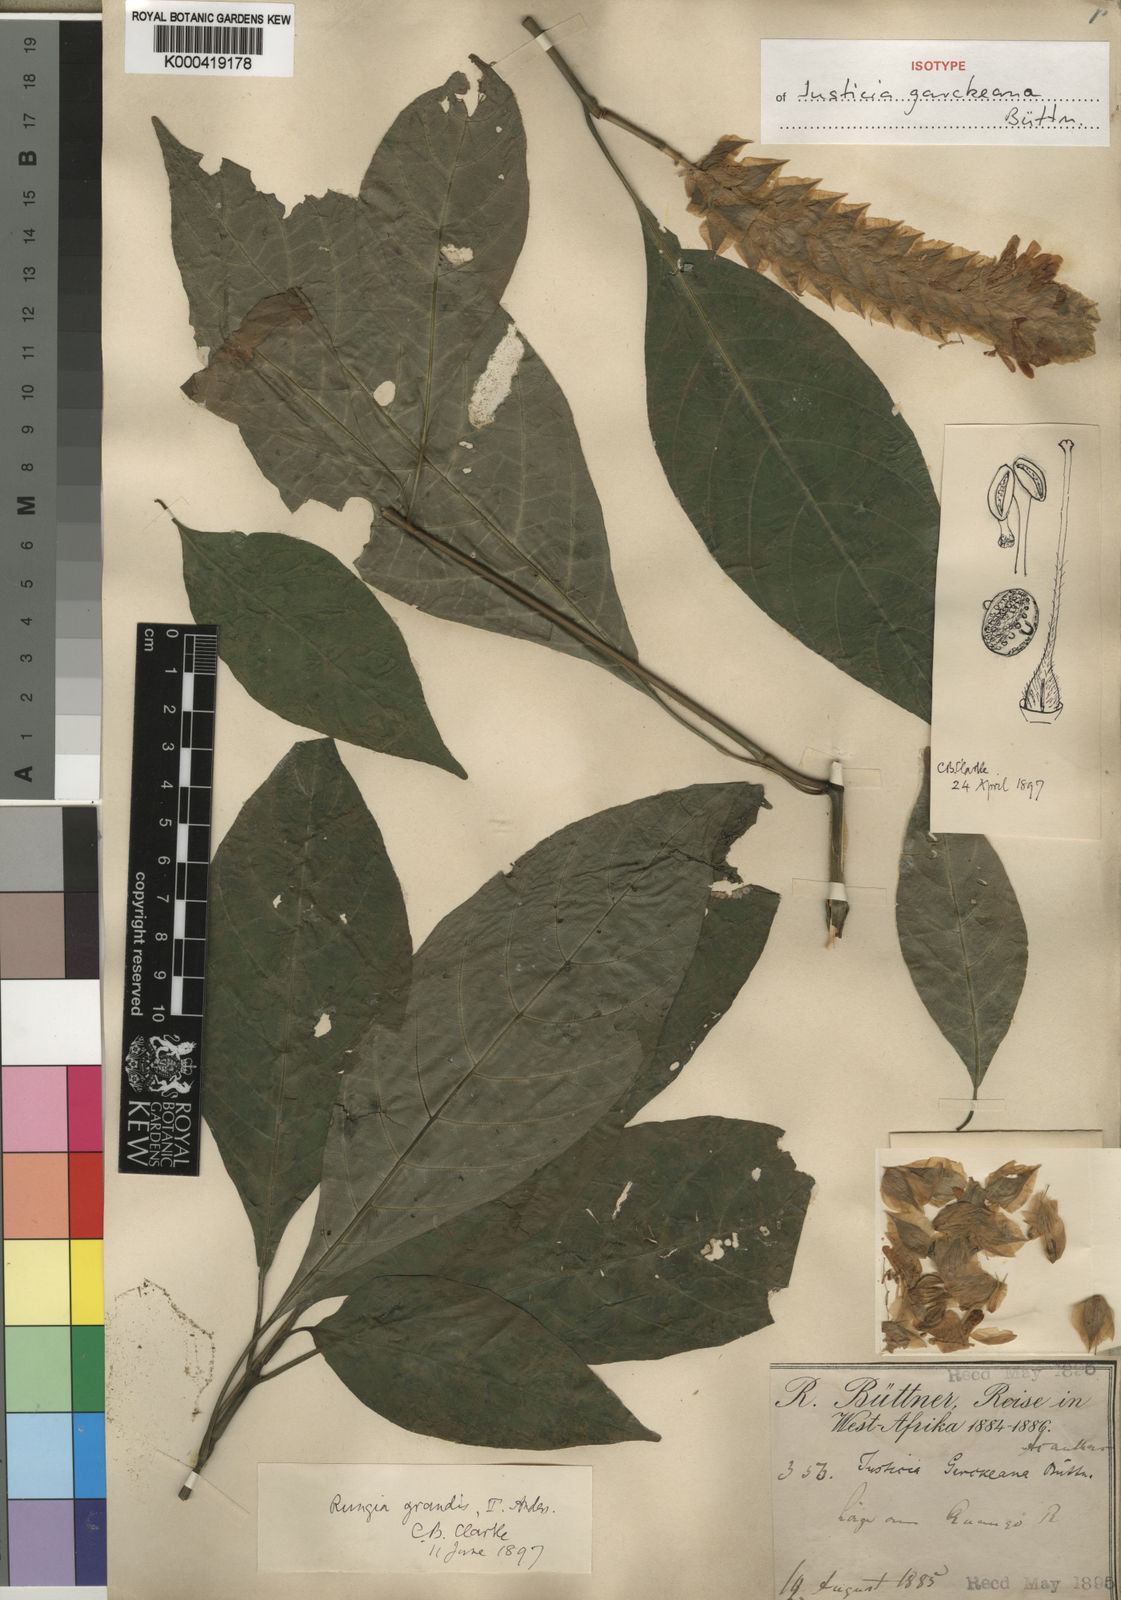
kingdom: Plantae
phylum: Tracheophyta
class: Magnoliopsida
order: Lamiales
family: Acanthaceae
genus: Justicia
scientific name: Justicia
